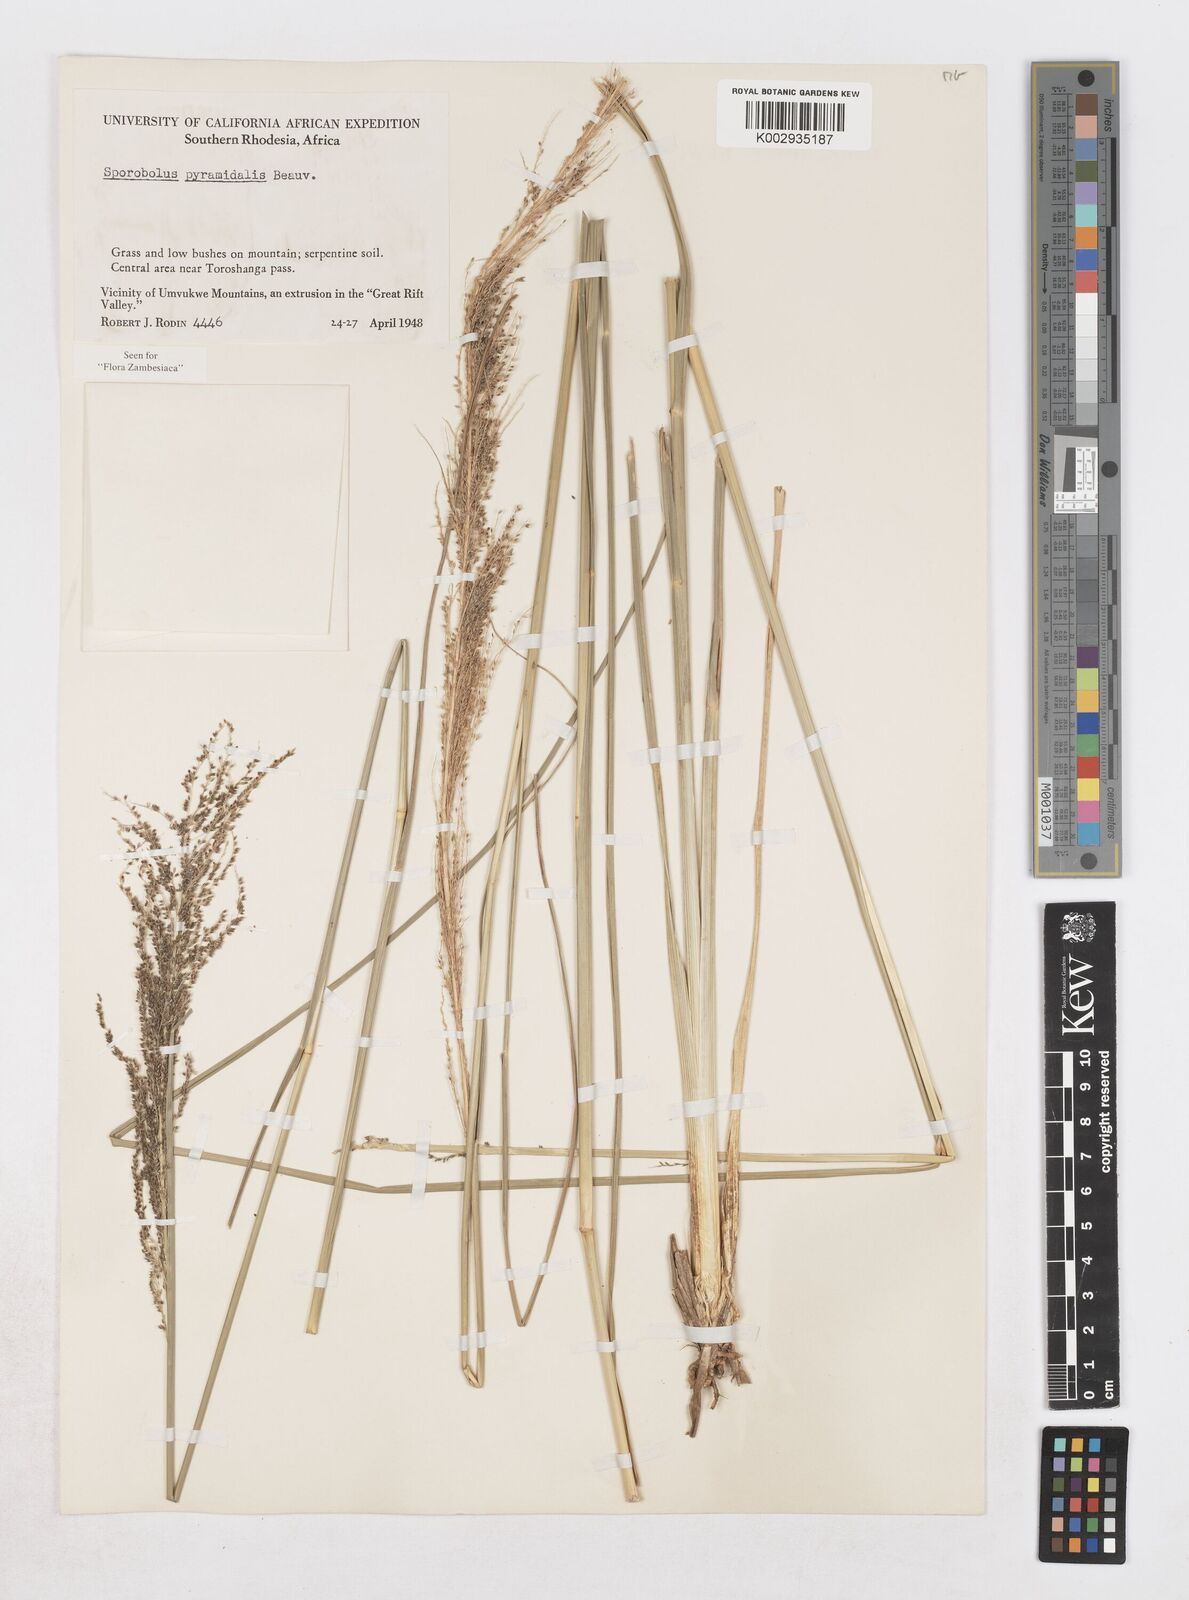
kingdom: Plantae
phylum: Tracheophyta
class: Liliopsida
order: Poales
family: Poaceae
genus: Sporobolus
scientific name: Sporobolus pyramidalis
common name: West indian dropseed
